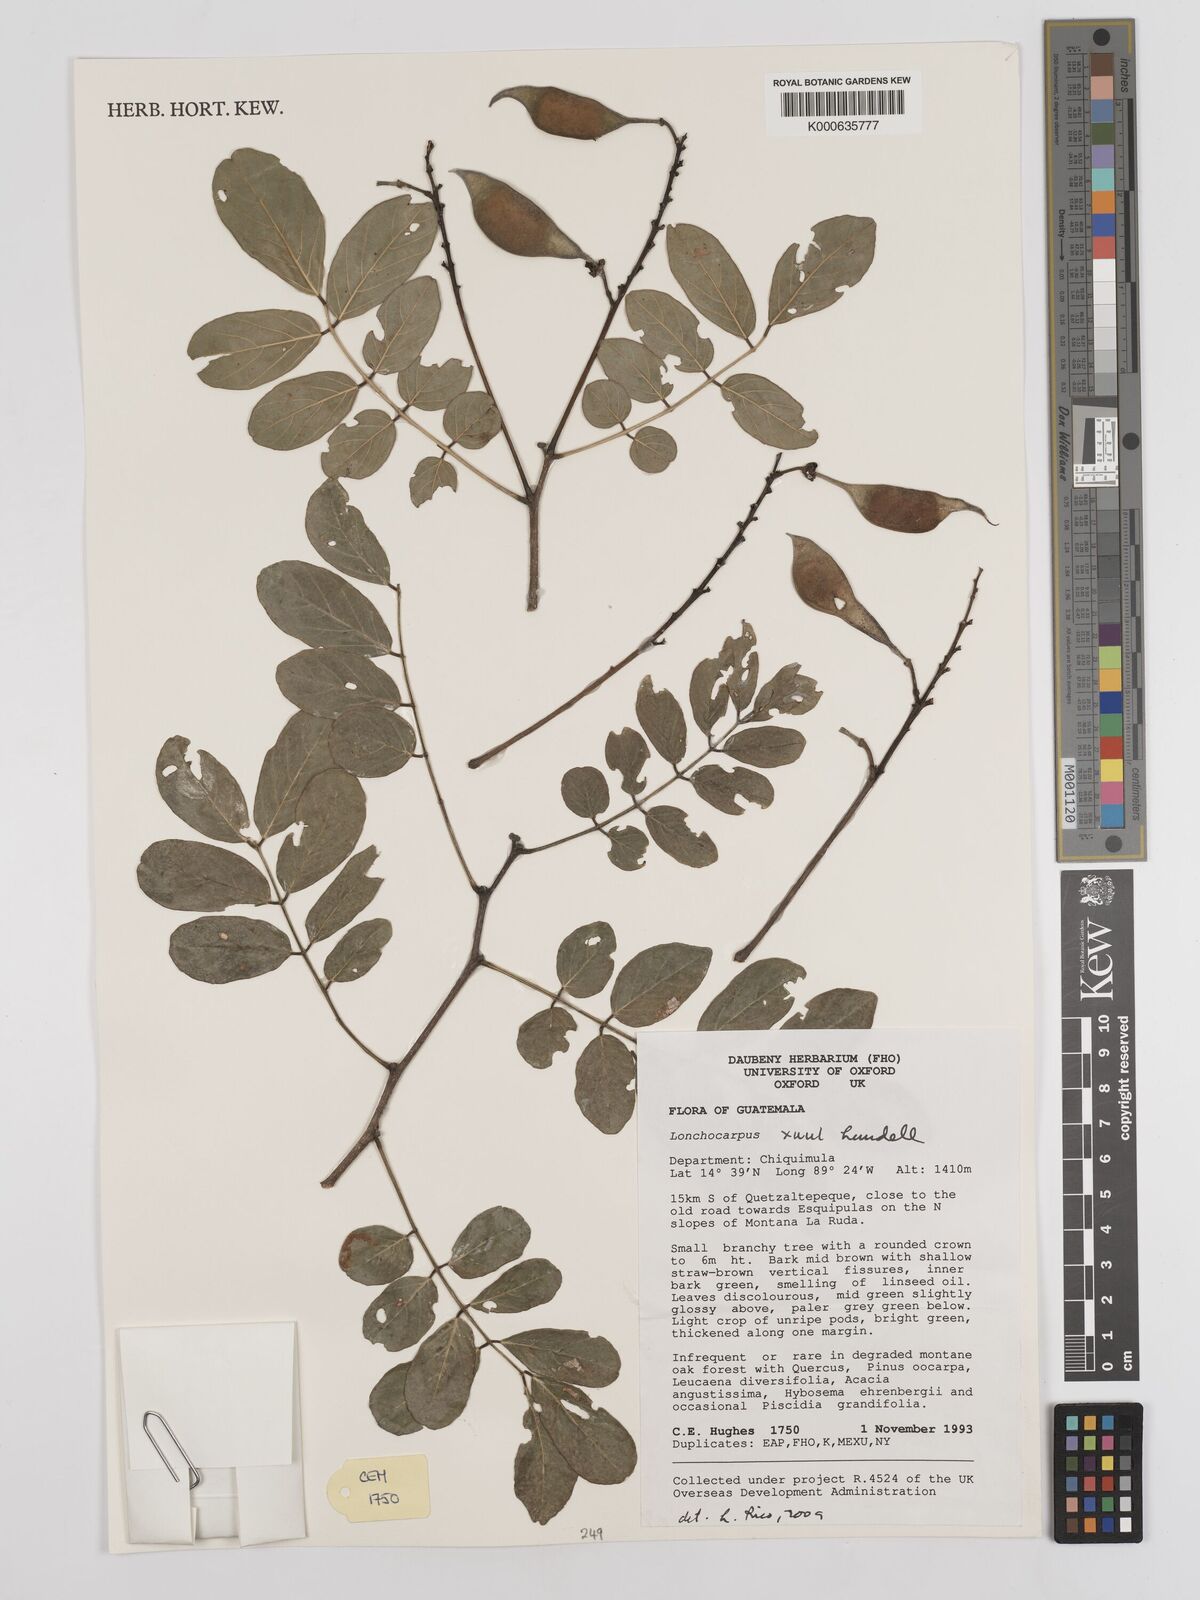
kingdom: Plantae
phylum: Tracheophyta
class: Magnoliopsida
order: Fabales
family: Fabaceae
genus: Lonchocarpus
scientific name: Lonchocarpus guatemalensis
